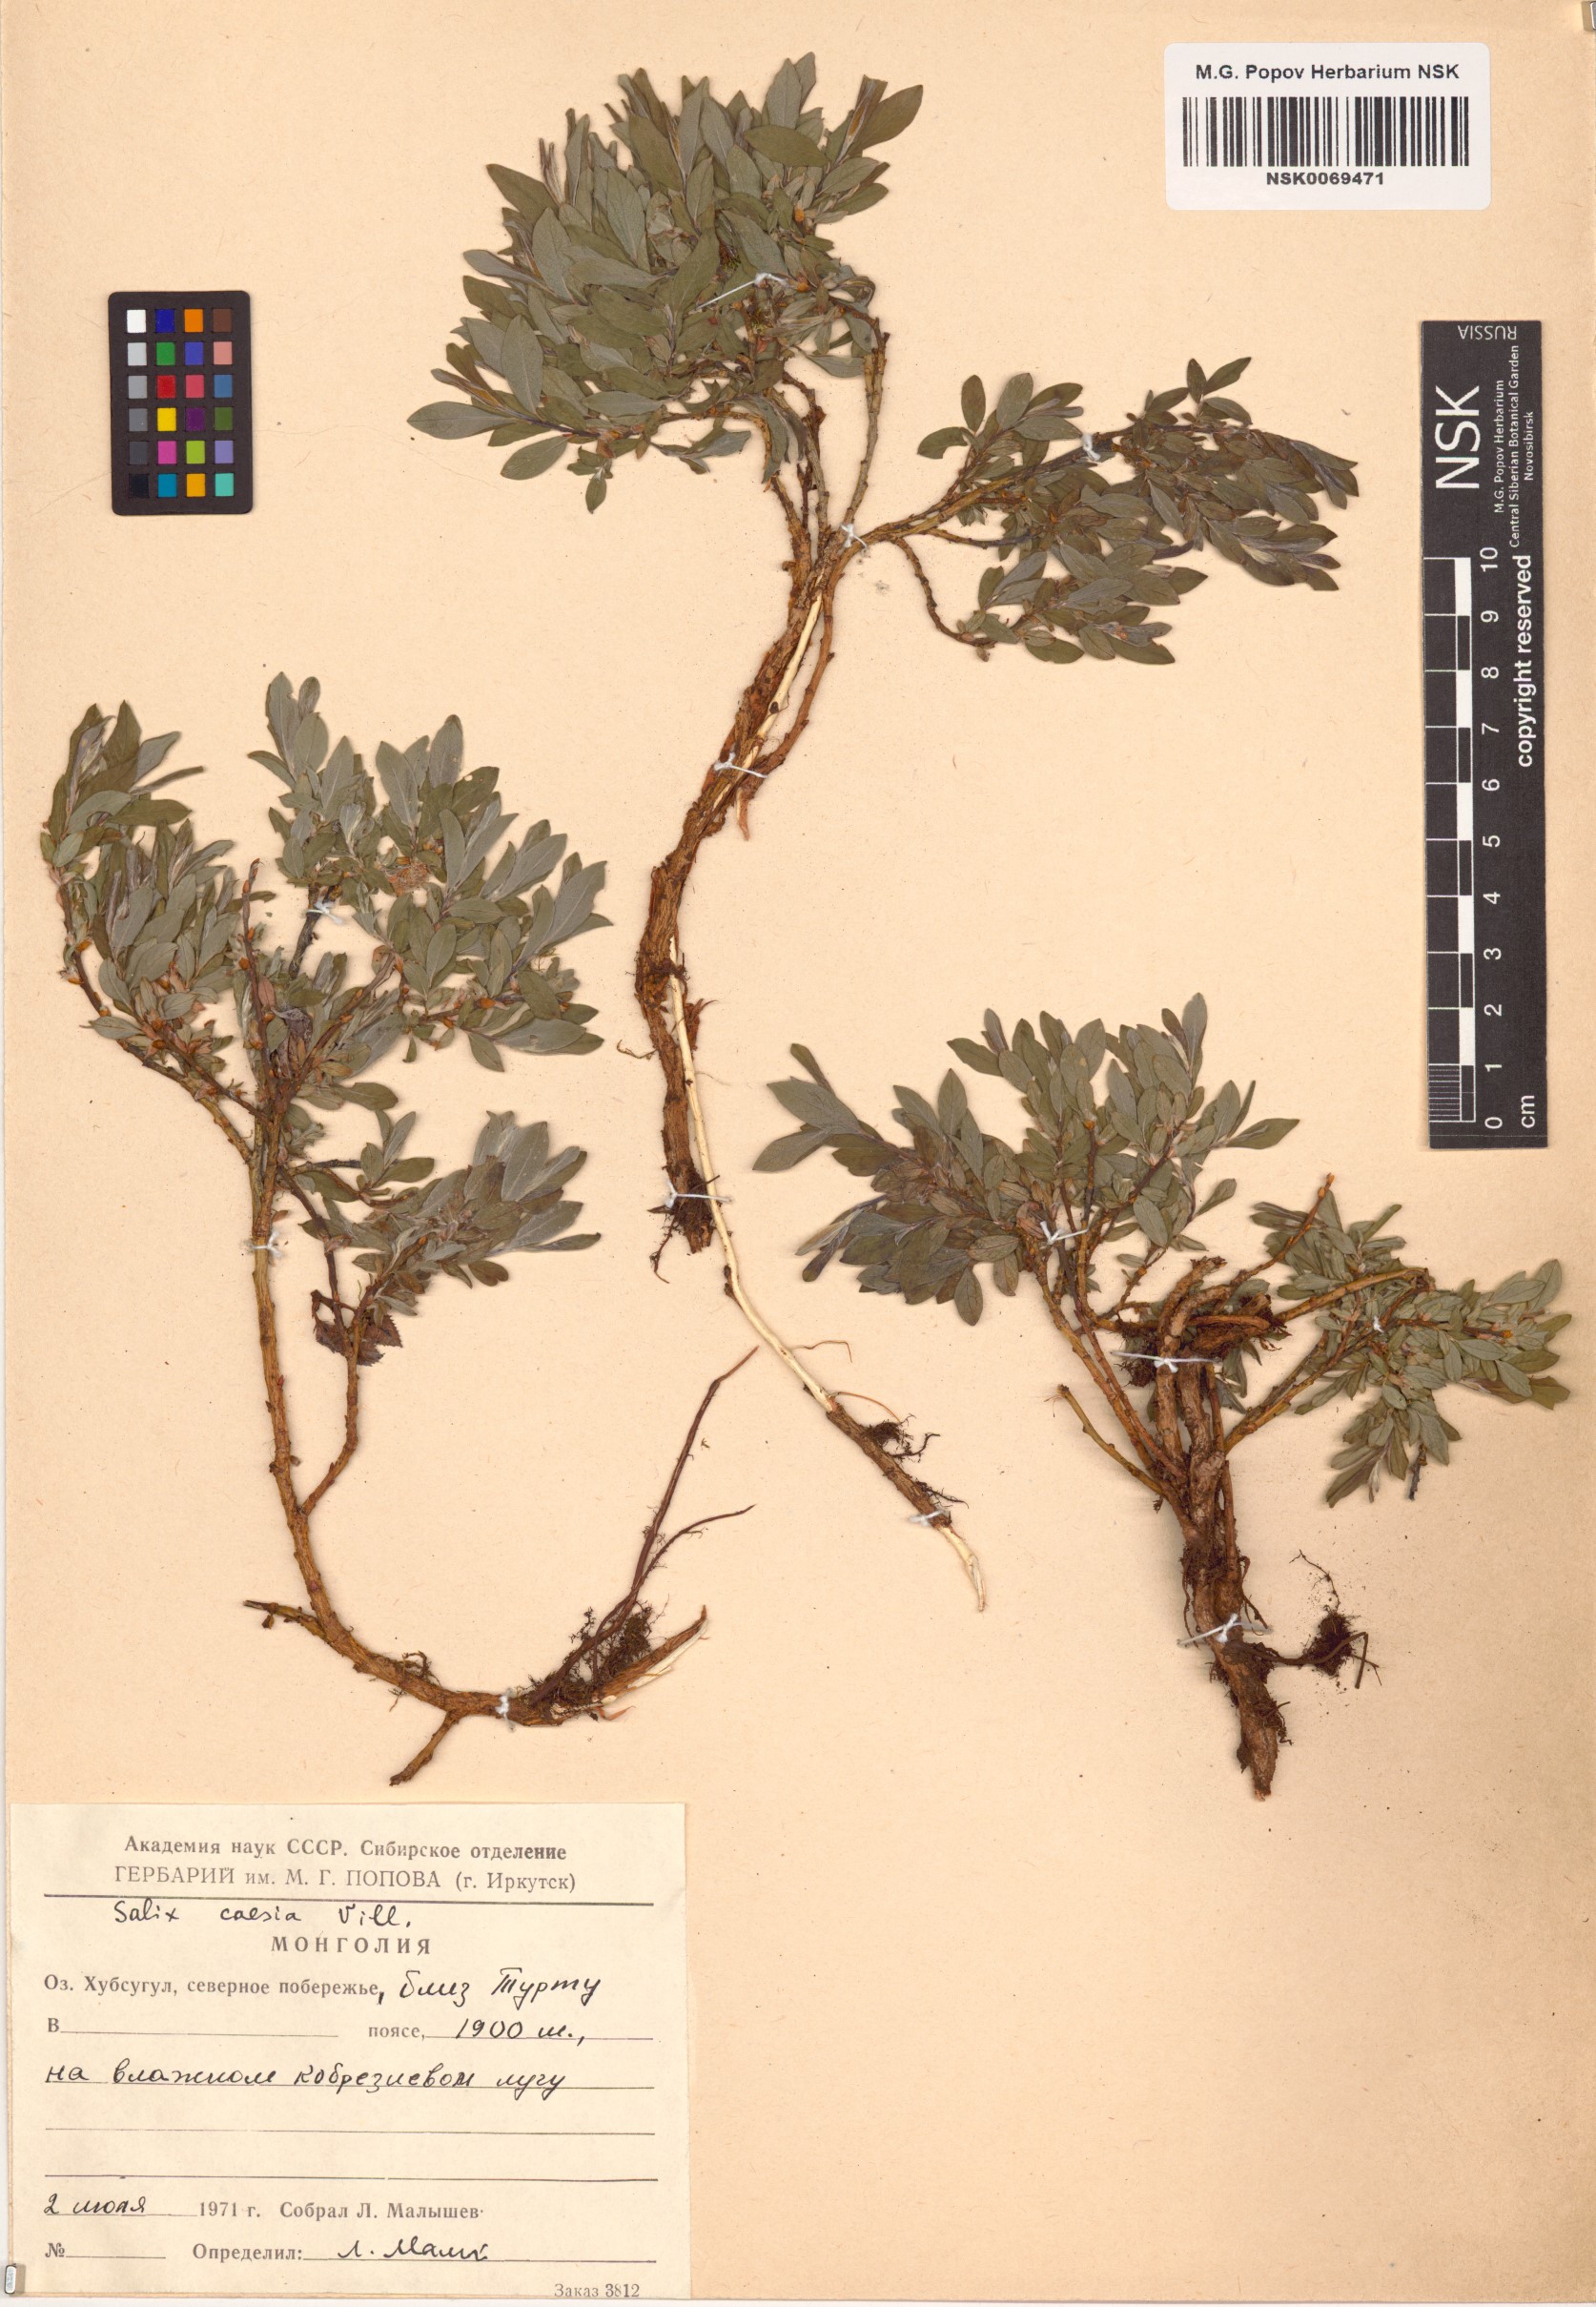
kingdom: Plantae
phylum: Tracheophyta
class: Magnoliopsida
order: Malpighiales
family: Salicaceae
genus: Salix
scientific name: Salix caesia
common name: Blue willow
